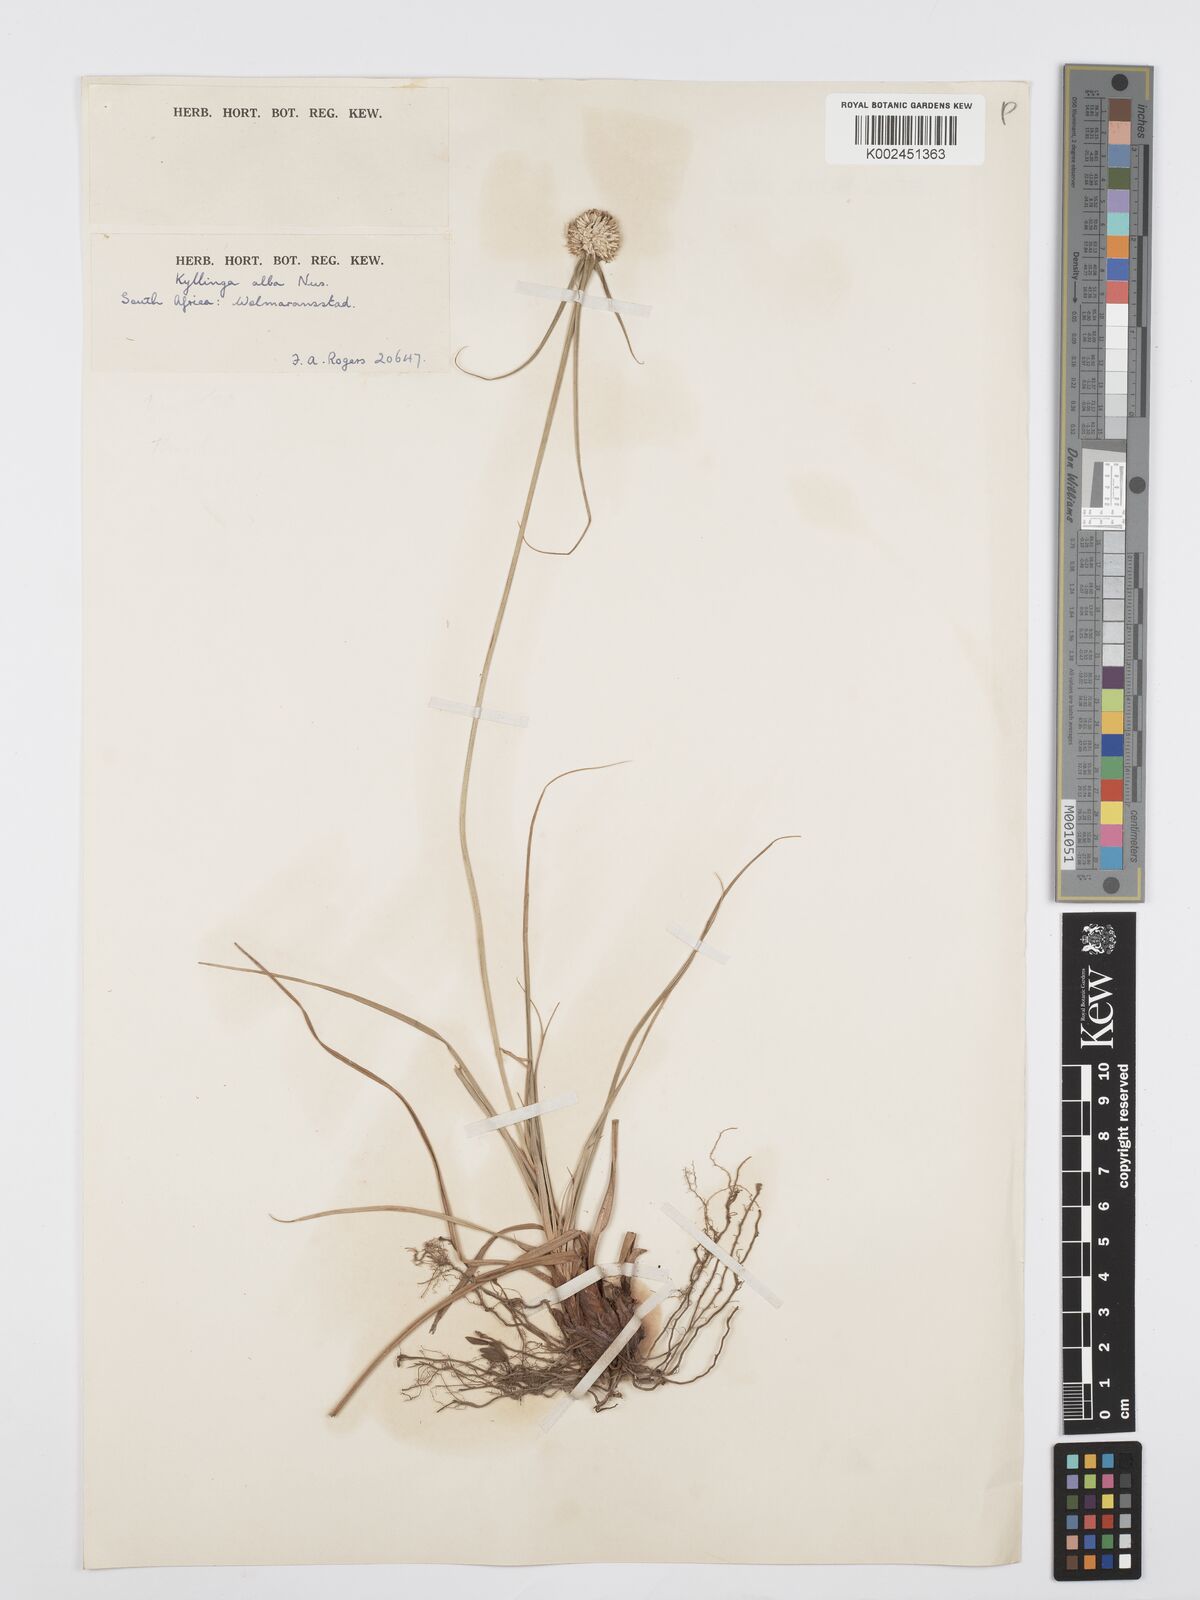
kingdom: Plantae
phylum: Tracheophyta
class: Liliopsida
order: Poales
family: Cyperaceae
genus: Cyperus
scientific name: Cyperus
